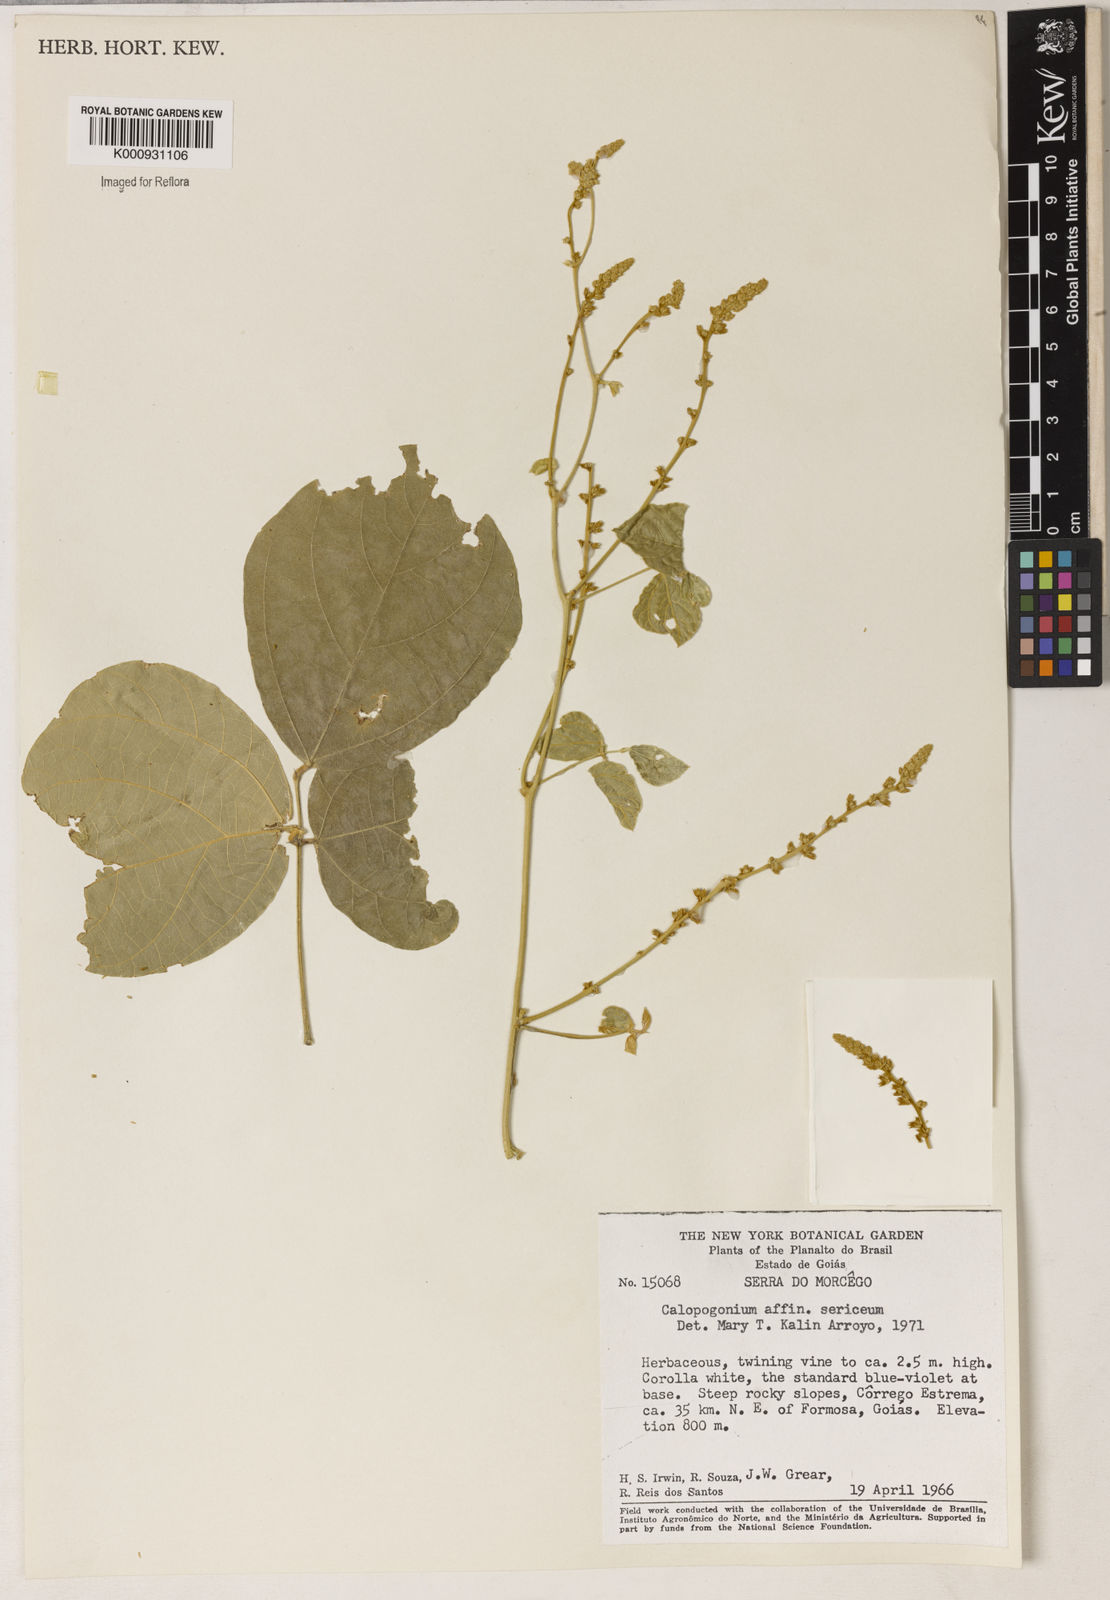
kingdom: Plantae
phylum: Tracheophyta
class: Magnoliopsida
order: Fabales
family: Fabaceae
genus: Calopogonium
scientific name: Calopogonium sericeum
